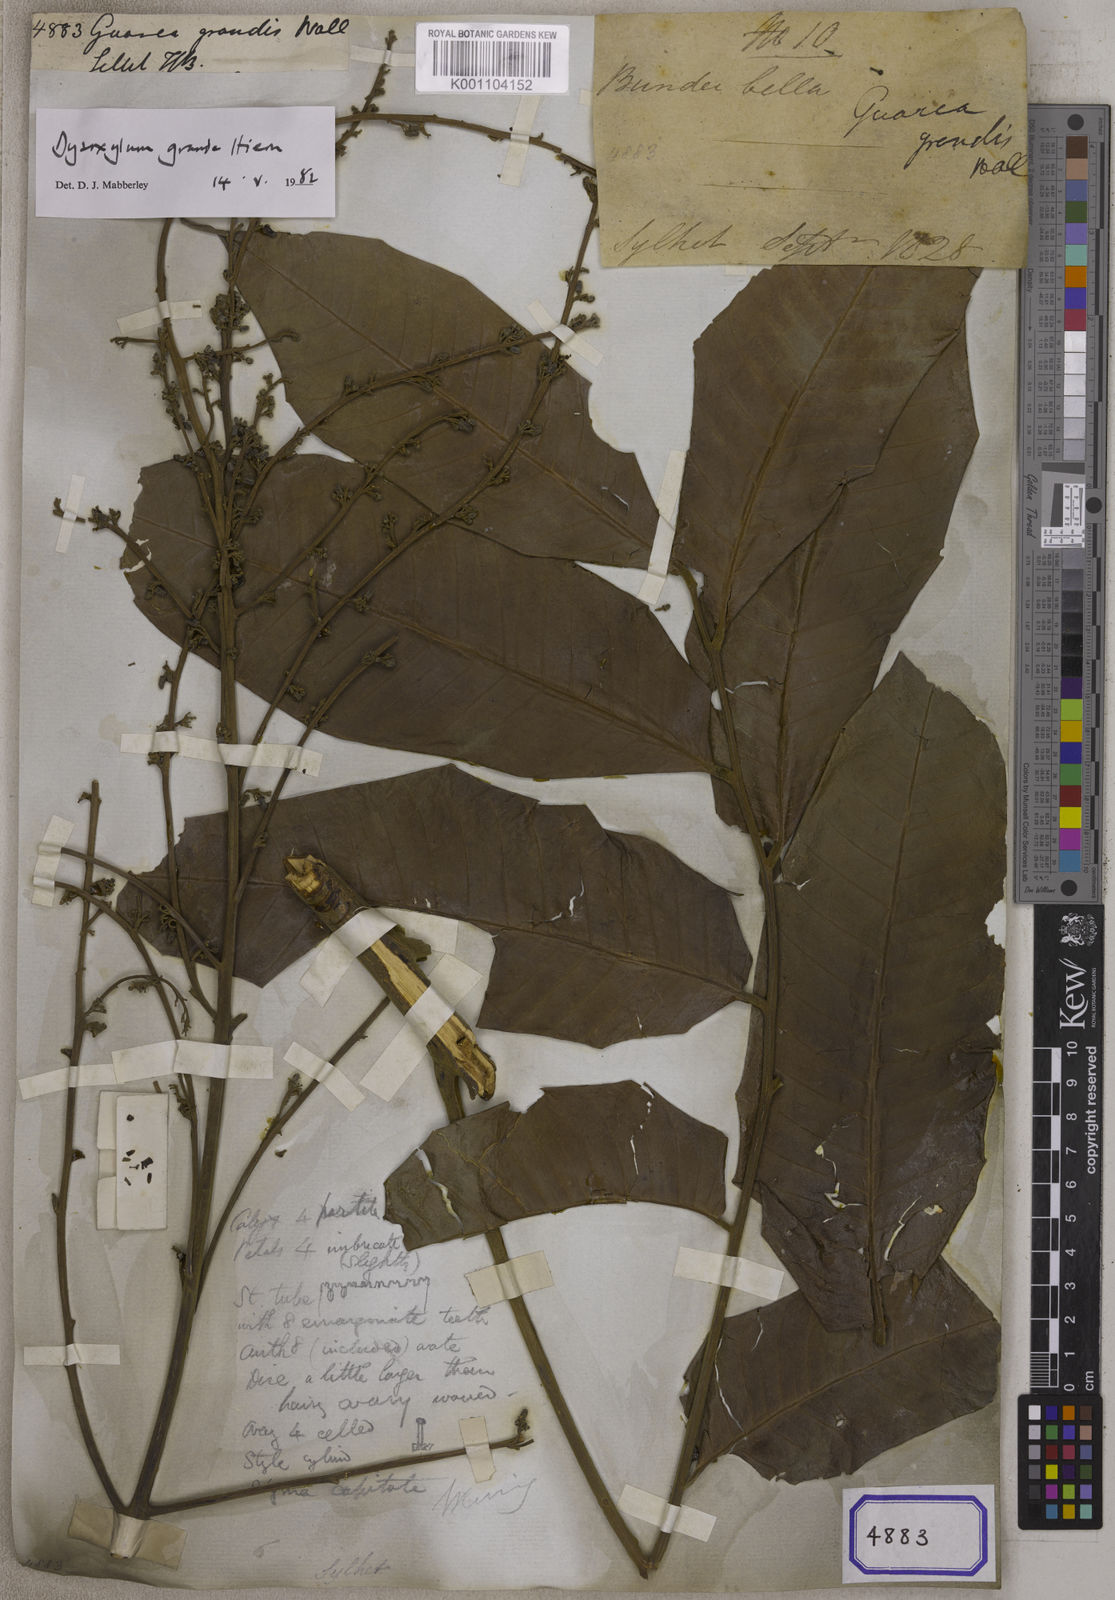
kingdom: Plantae
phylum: Tracheophyta
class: Magnoliopsida
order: Sapindales
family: Meliaceae
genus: Dysoxylum
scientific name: Dysoxylum grande
